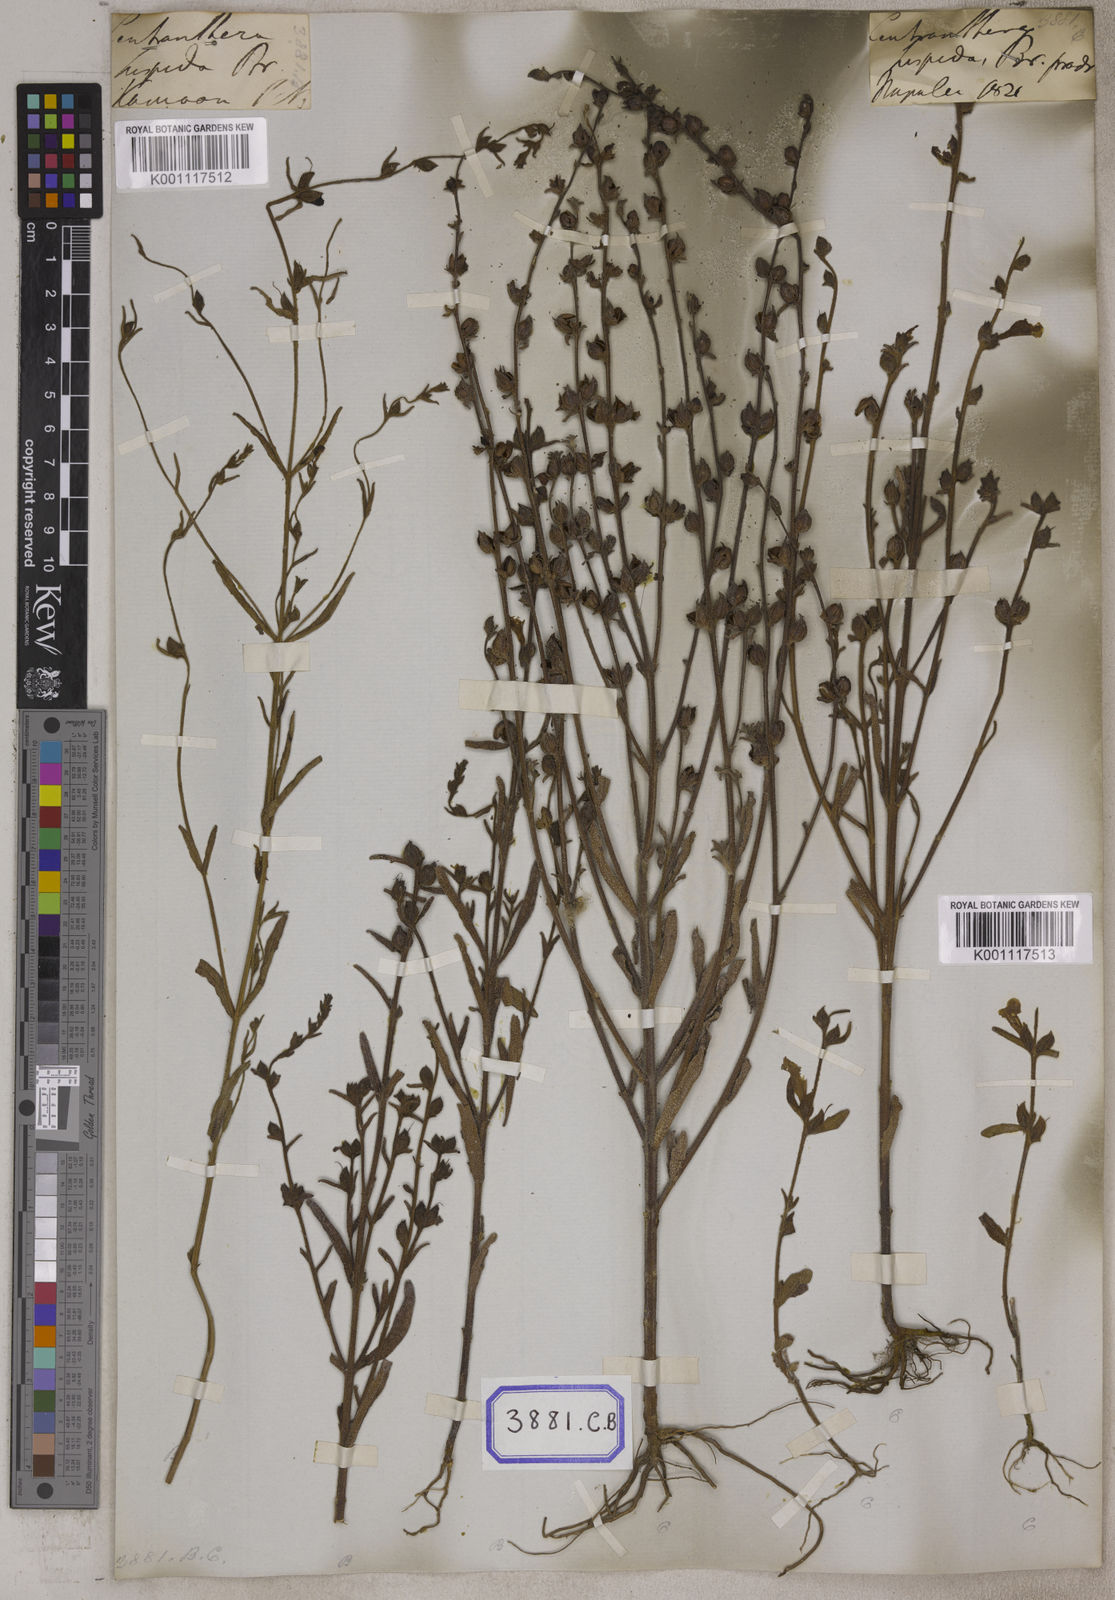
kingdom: Plantae
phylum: Tracheophyta
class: Magnoliopsida
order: Lamiales
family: Orobanchaceae
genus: Centranthera
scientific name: Centranthera hispida
